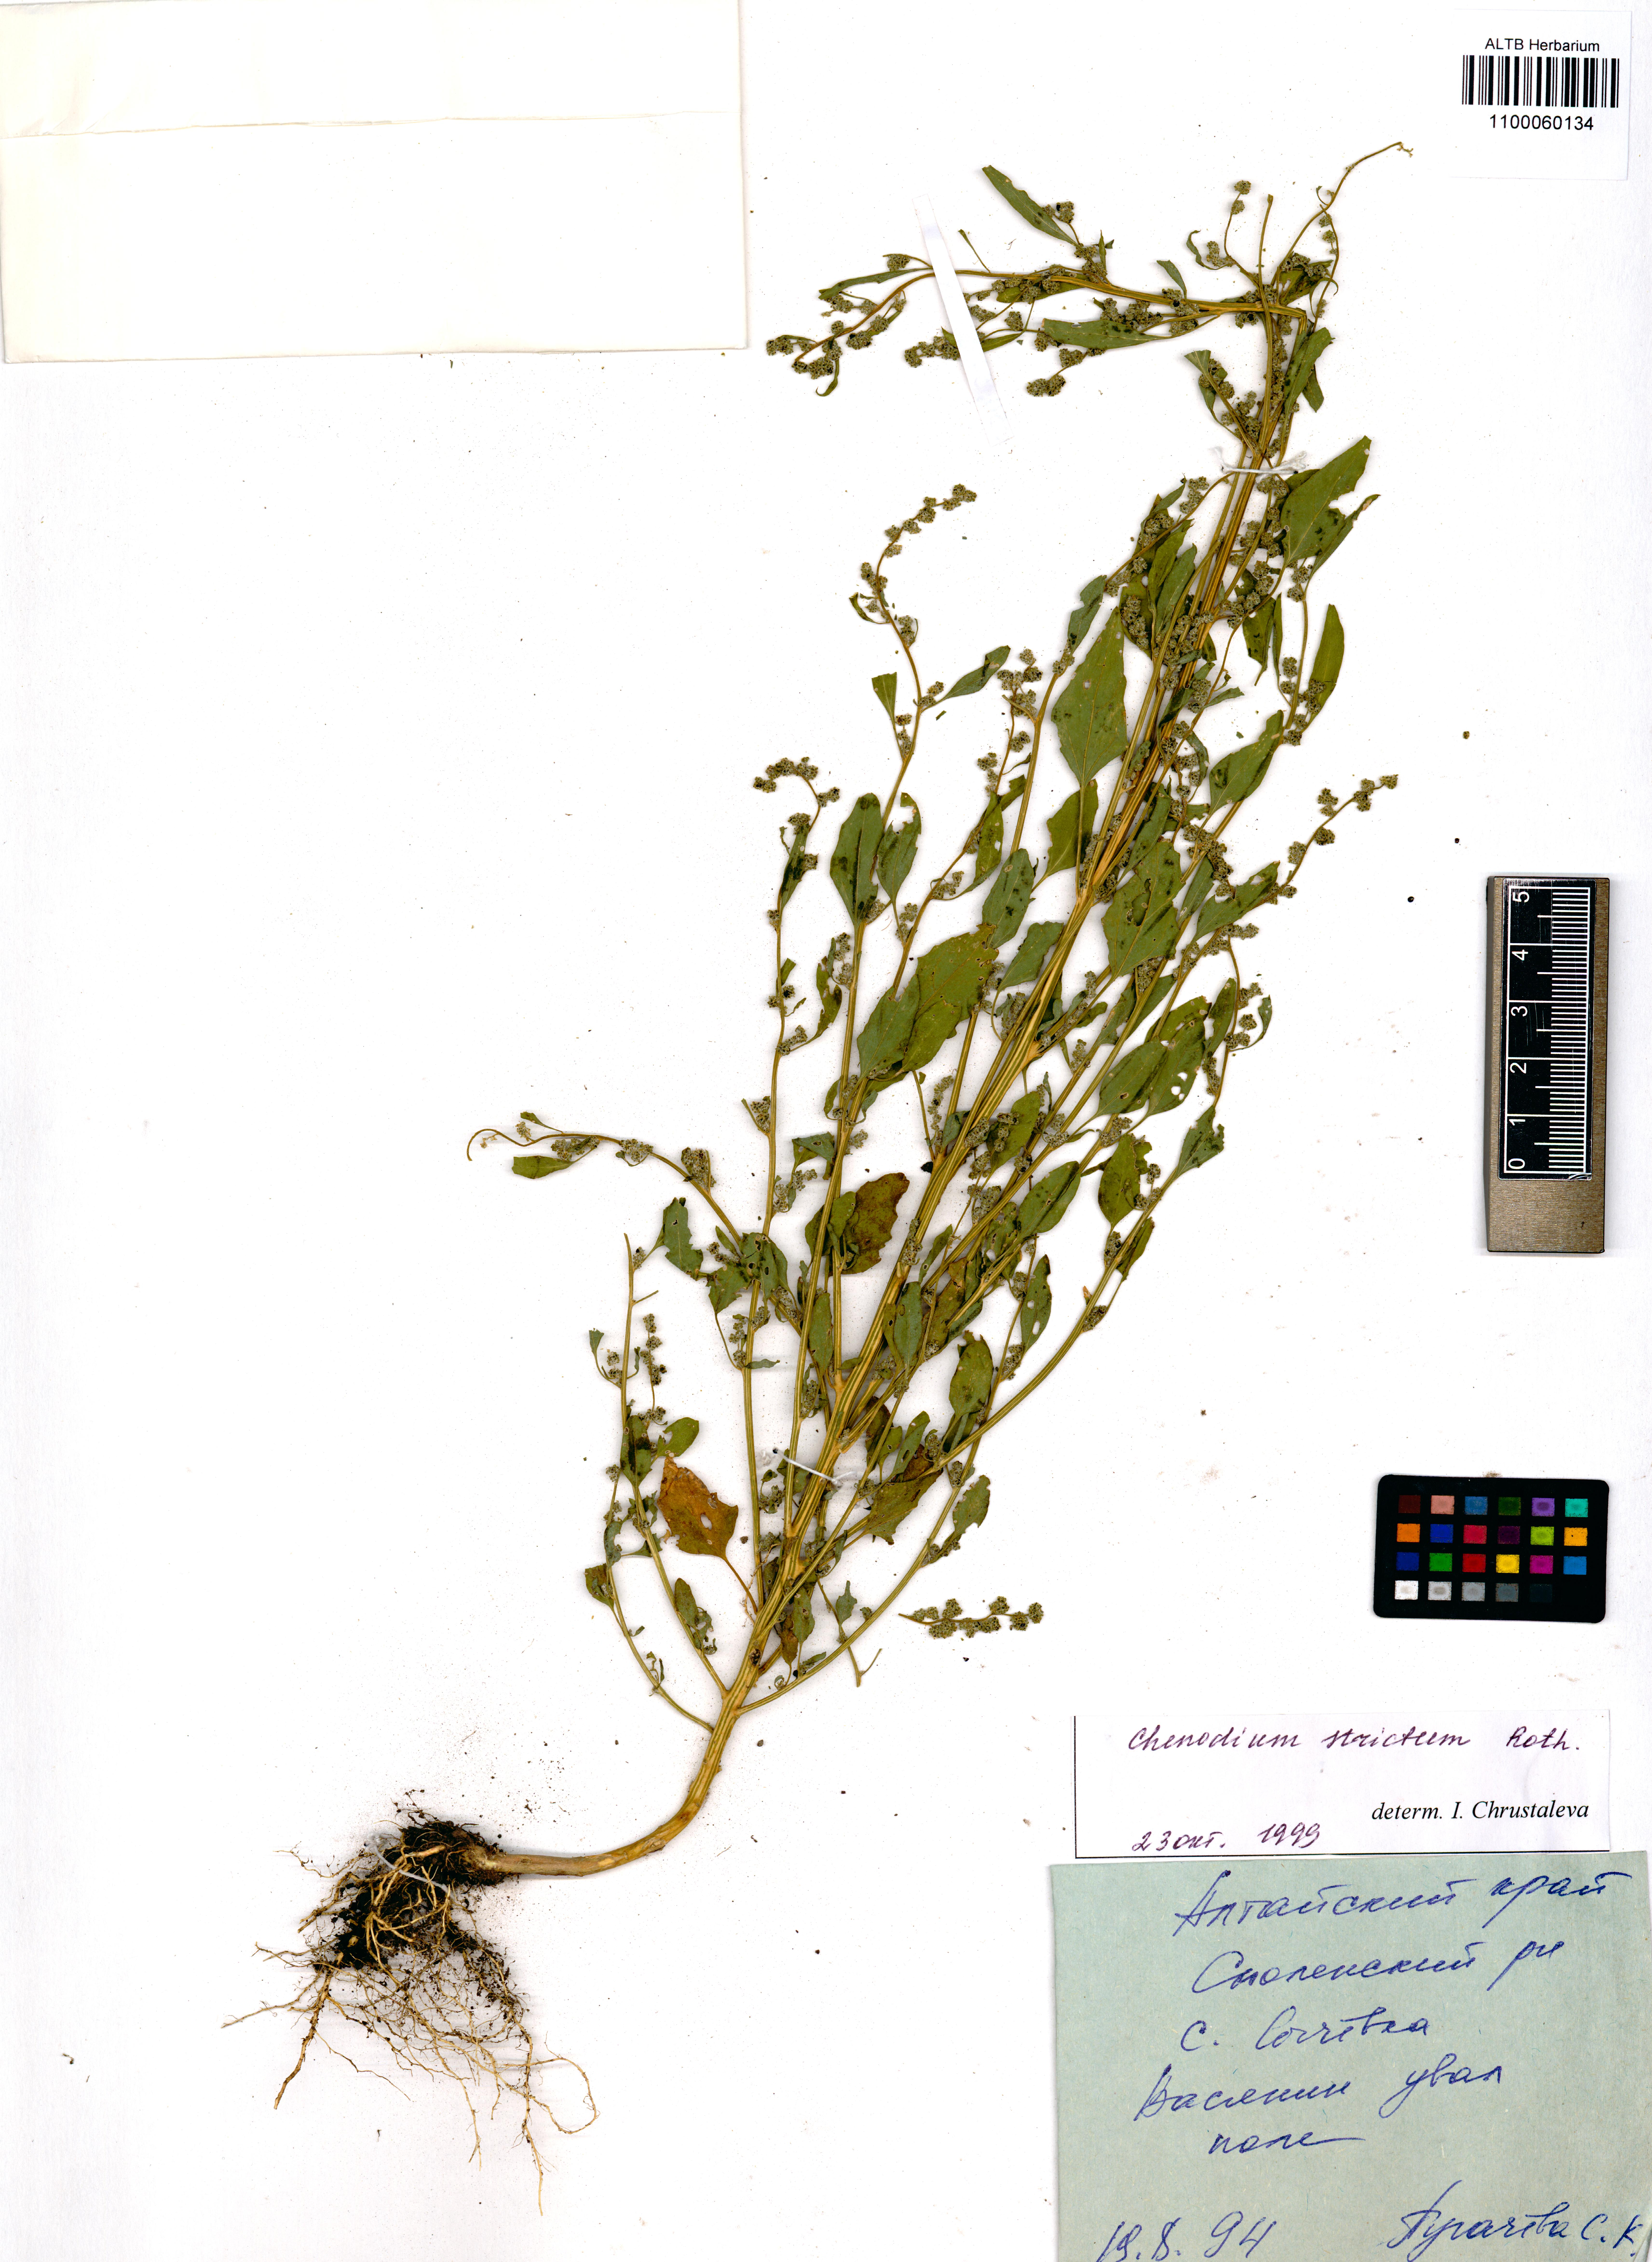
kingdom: Plantae
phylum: Tracheophyta
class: Magnoliopsida
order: Caryophyllales
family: Amaranthaceae
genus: Chenopodium
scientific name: Chenopodium album
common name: Fat-hen
